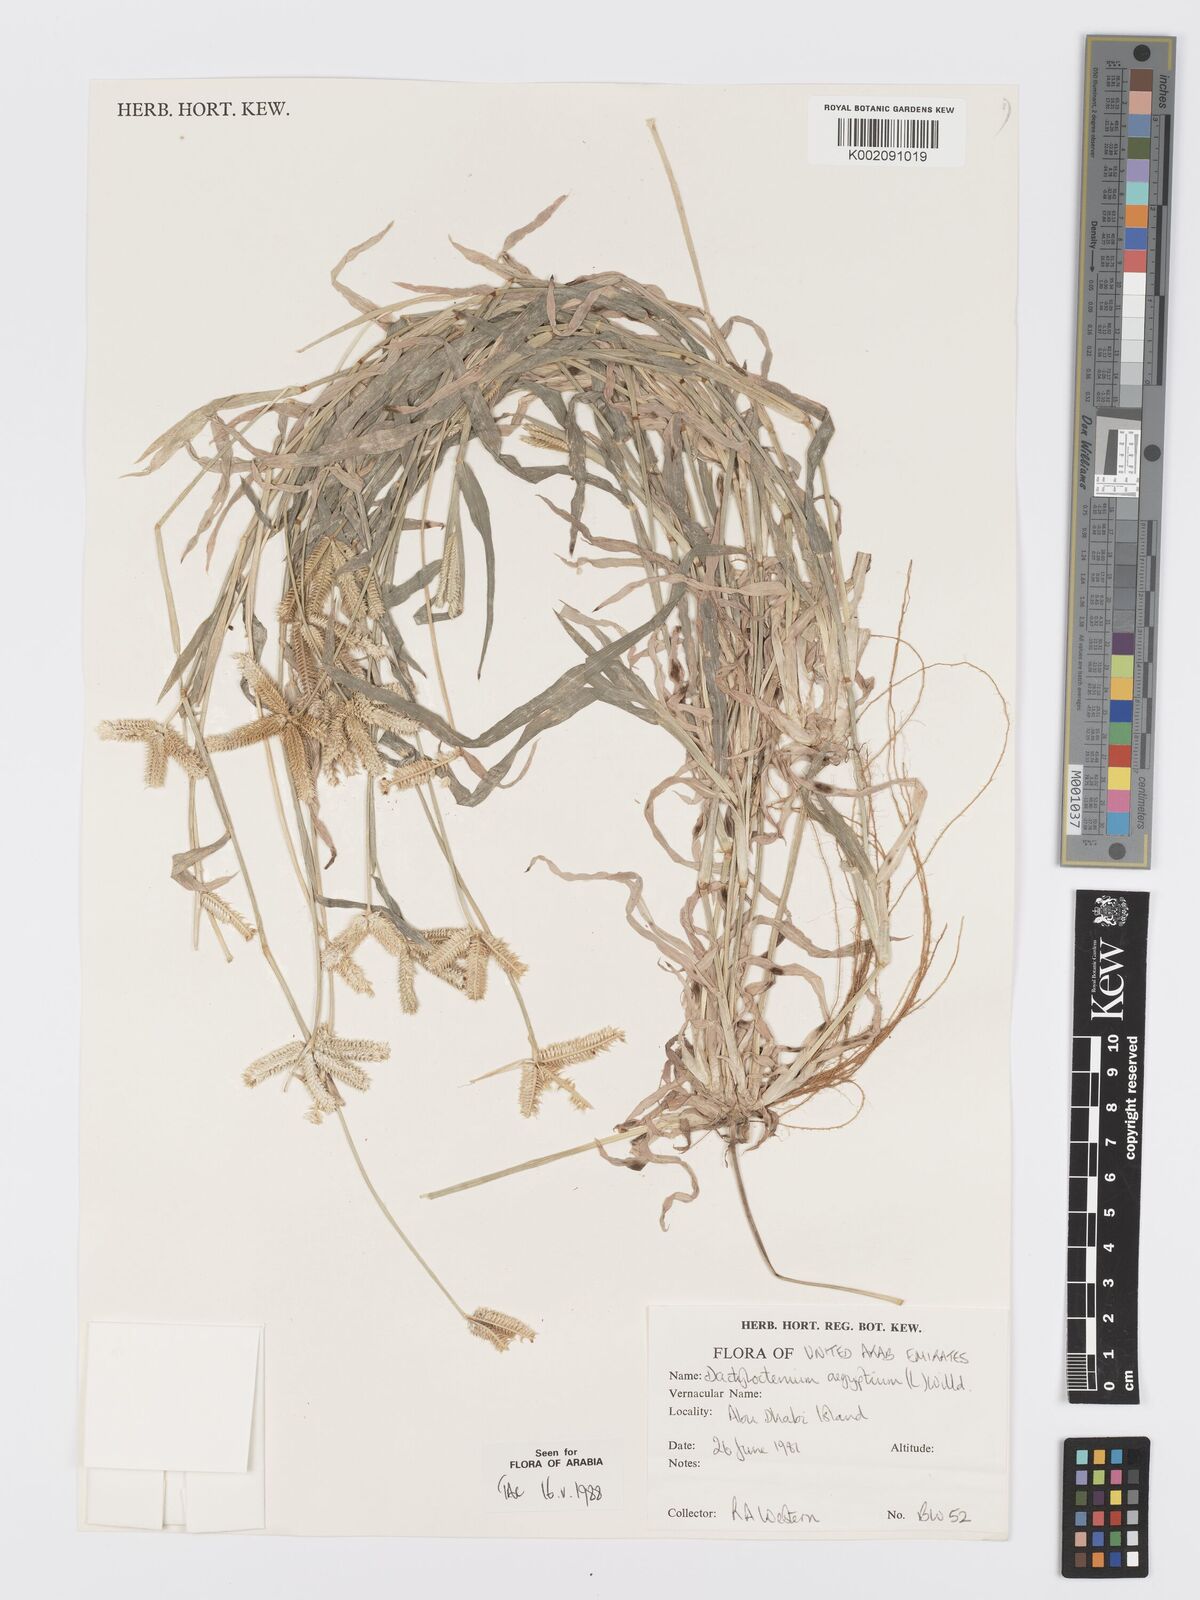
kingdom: Plantae
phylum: Tracheophyta
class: Liliopsida
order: Poales
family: Poaceae
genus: Dactyloctenium
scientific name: Dactyloctenium aegyptium
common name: Egyptian grass
